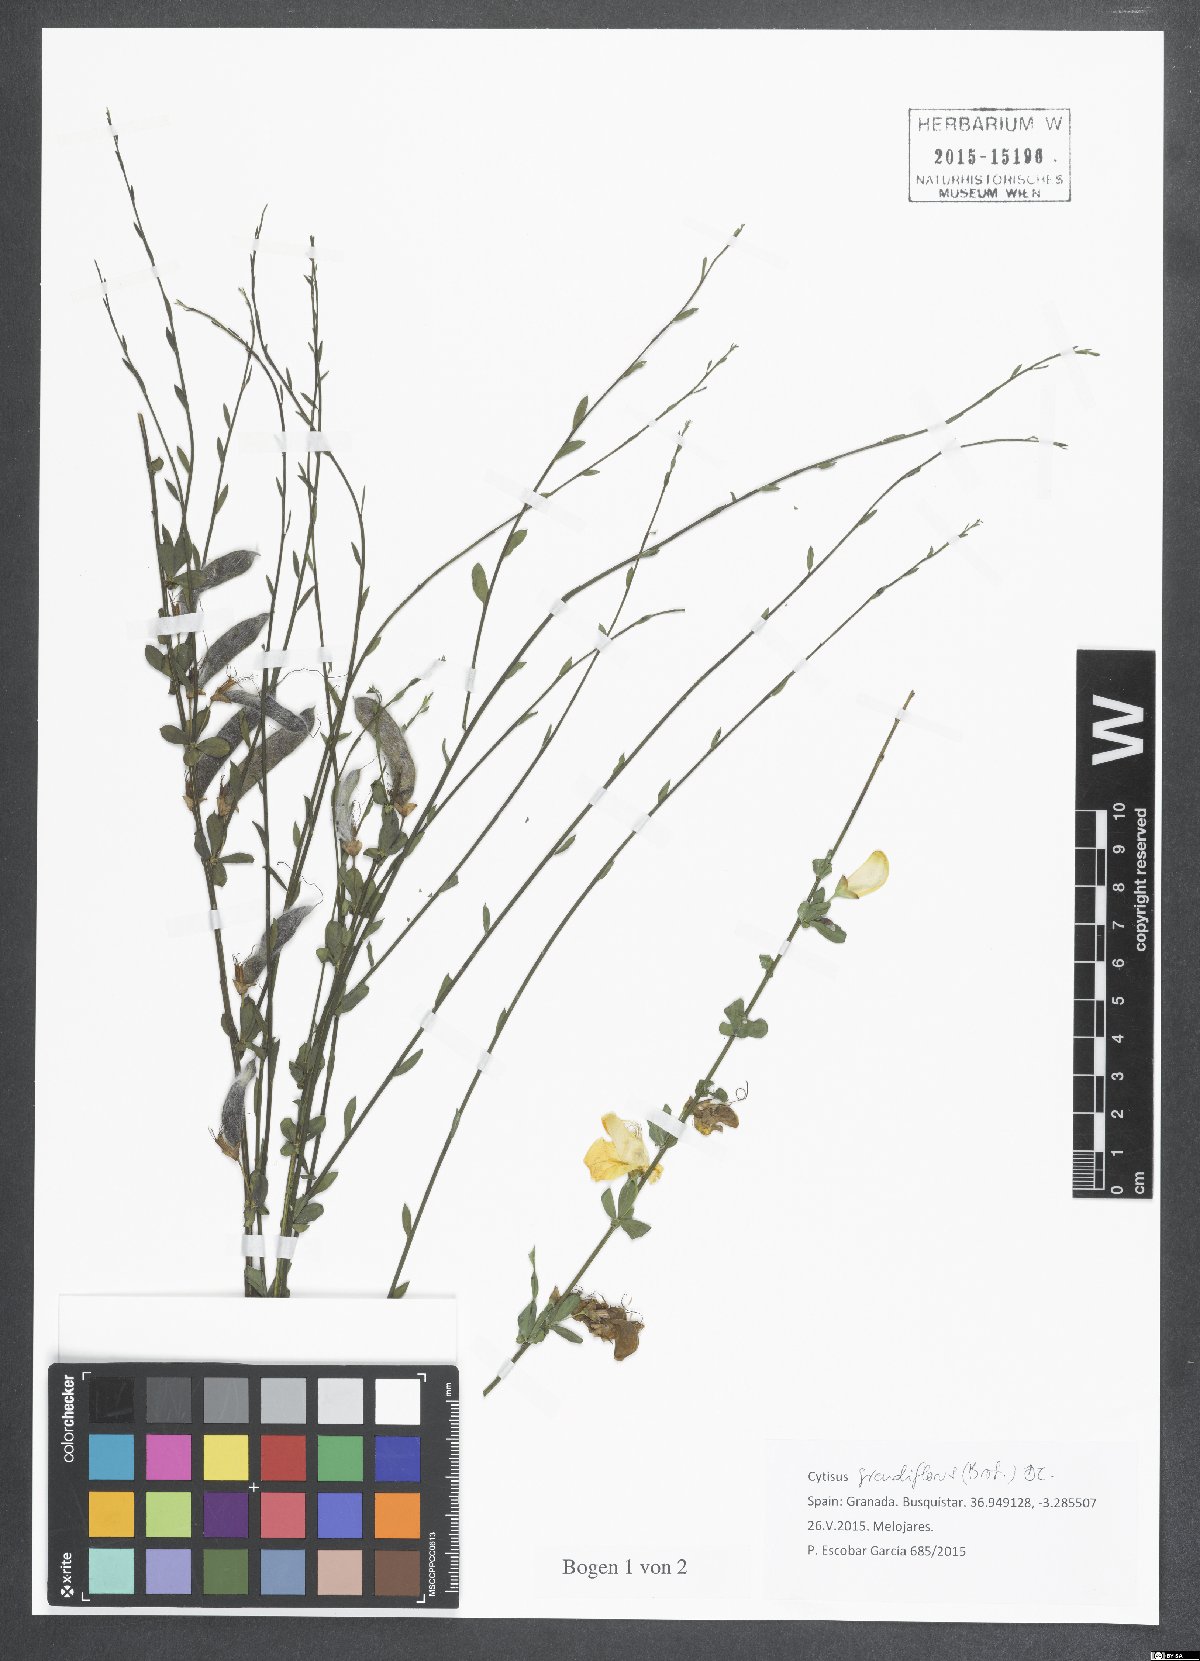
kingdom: Plantae
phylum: Tracheophyta
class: Magnoliopsida
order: Fabales
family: Fabaceae
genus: Cytisus
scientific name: Cytisus grandiflorus
